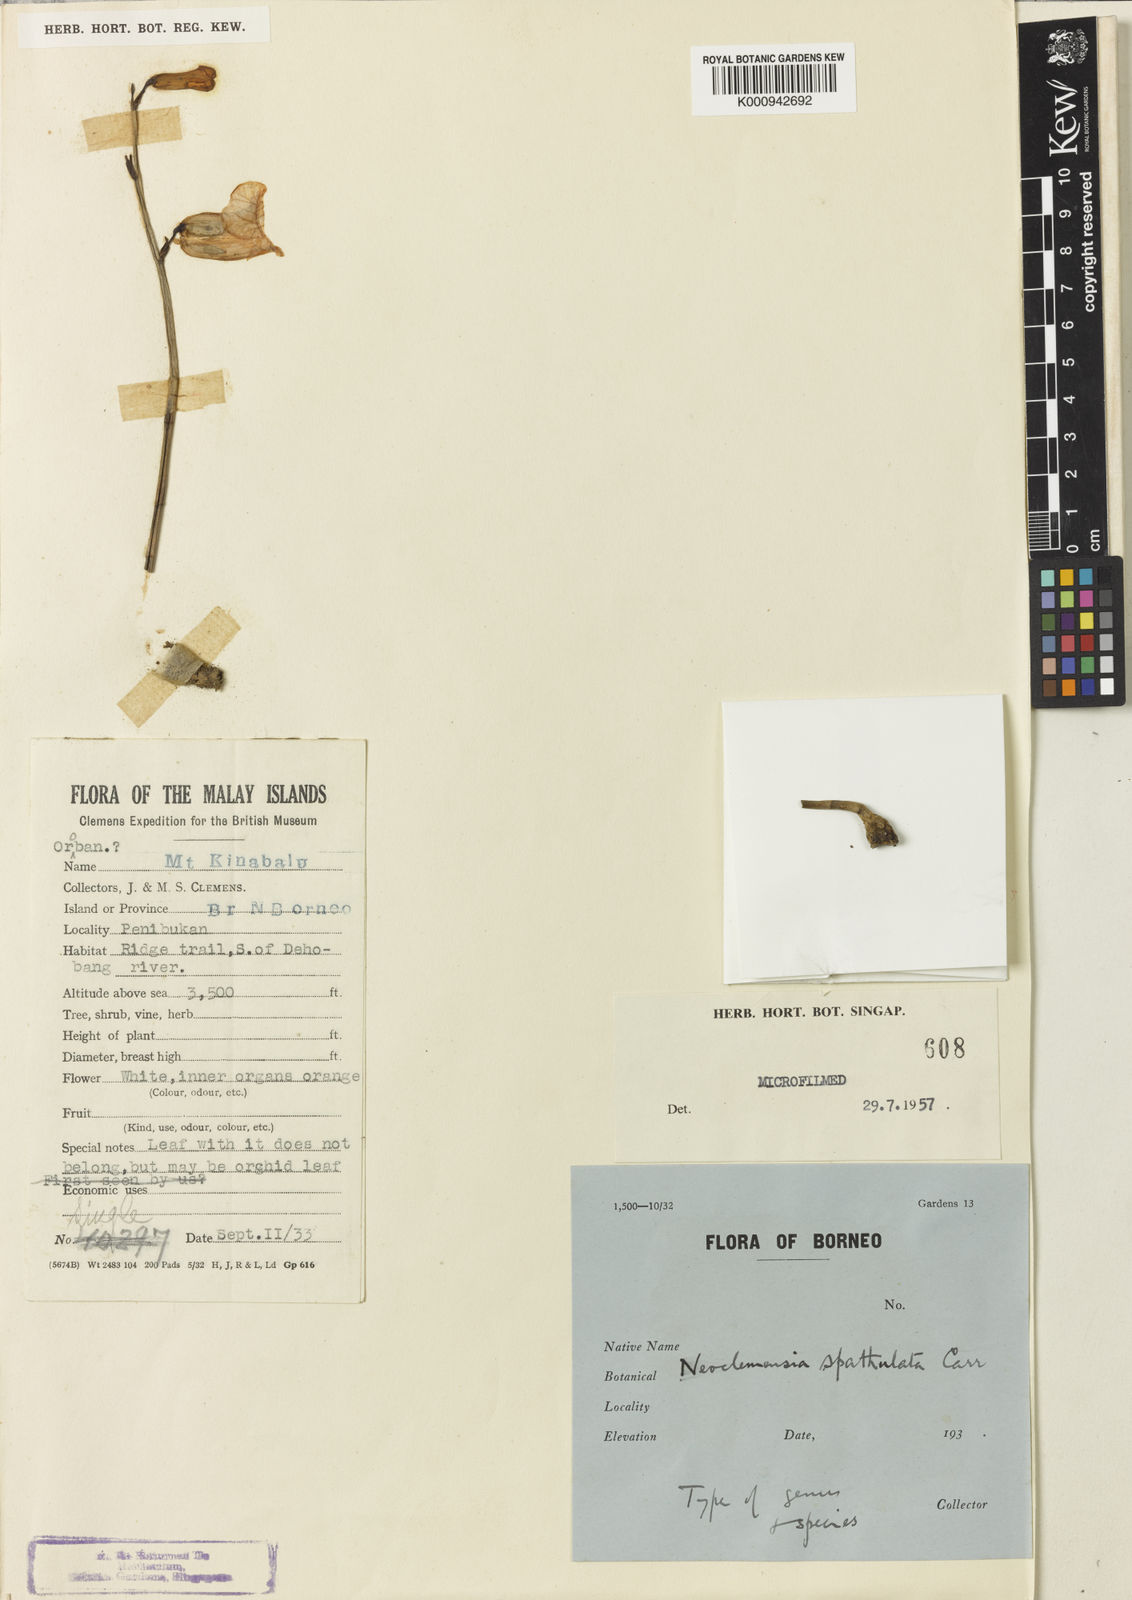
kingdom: Plantae
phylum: Tracheophyta
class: Liliopsida
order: Asparagales
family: Orchidaceae
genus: Gastrodia
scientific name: Gastrodia spatulata
